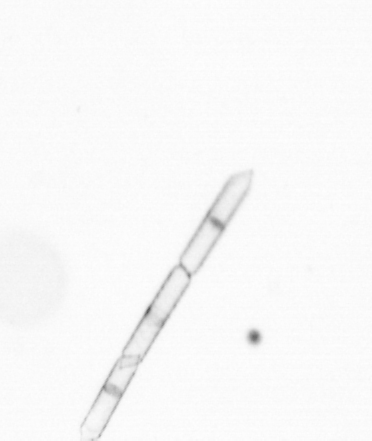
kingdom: Chromista
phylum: Ochrophyta
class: Bacillariophyceae
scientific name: Bacillariophyceae
